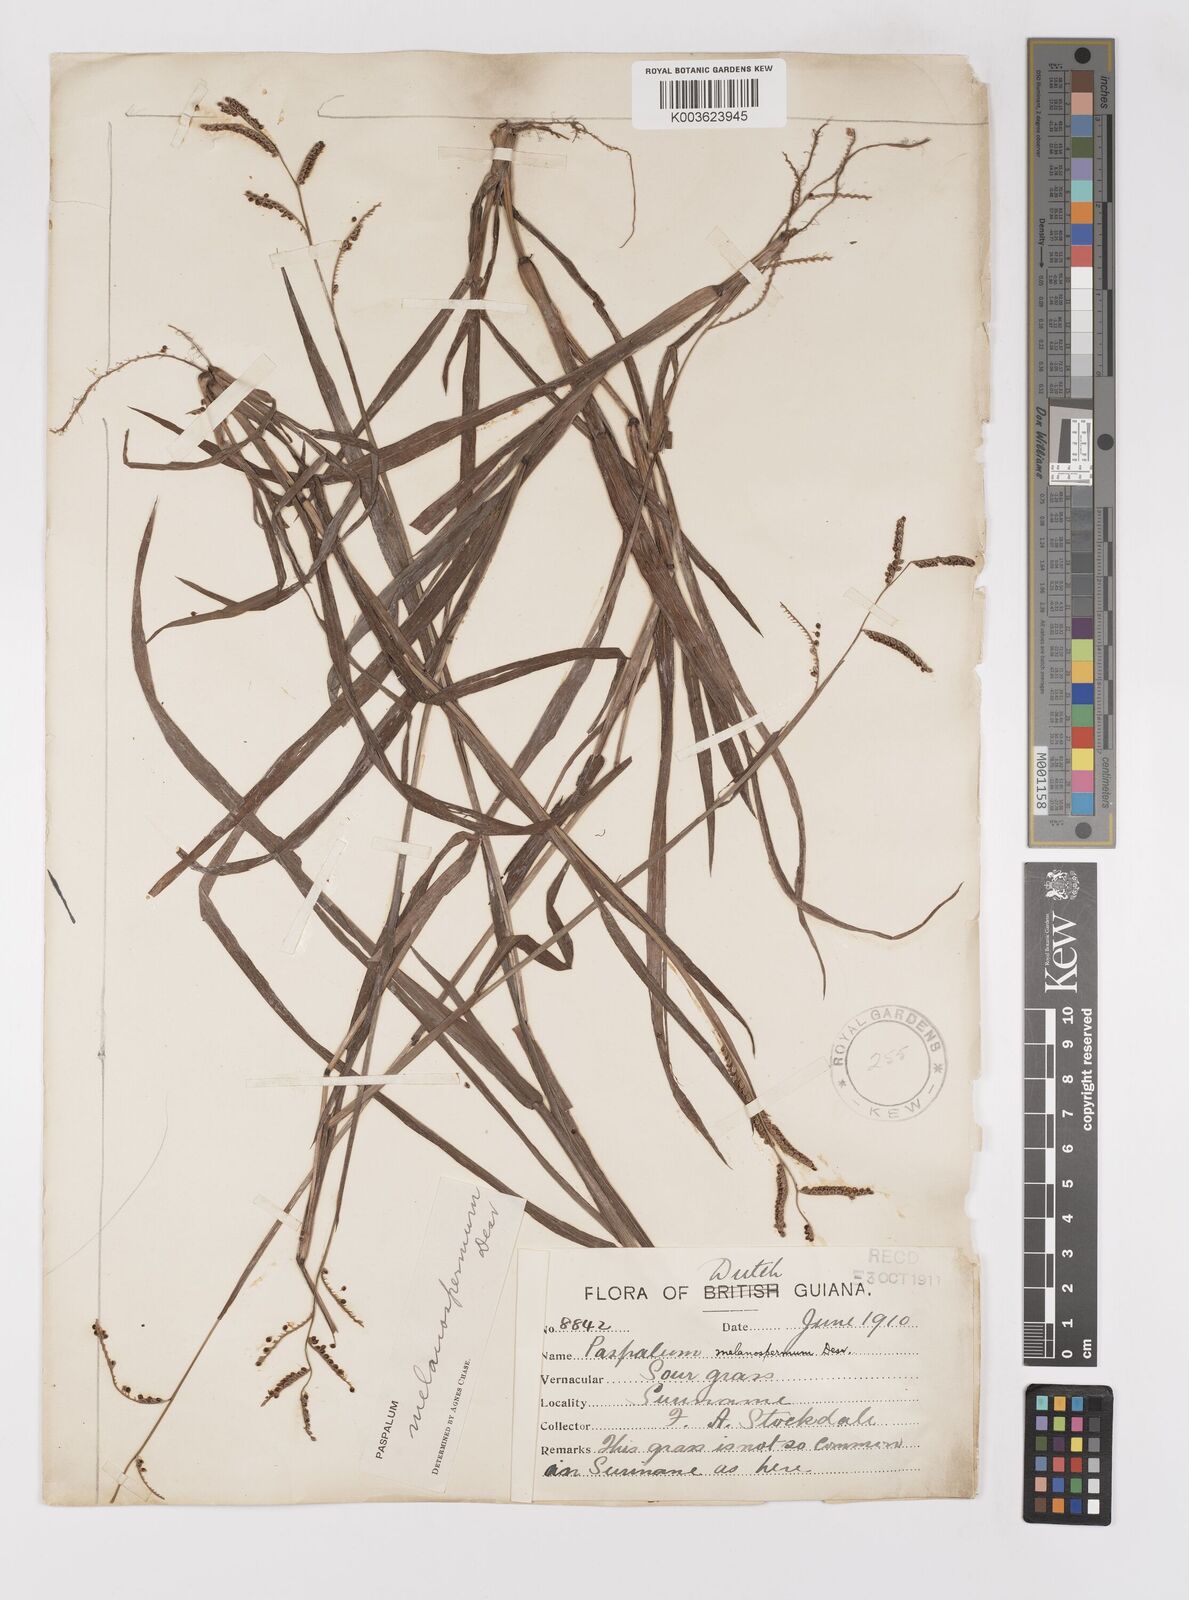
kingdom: Plantae
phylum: Tracheophyta
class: Liliopsida
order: Poales
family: Poaceae
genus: Paspalum
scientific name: Paspalum melanospermum
